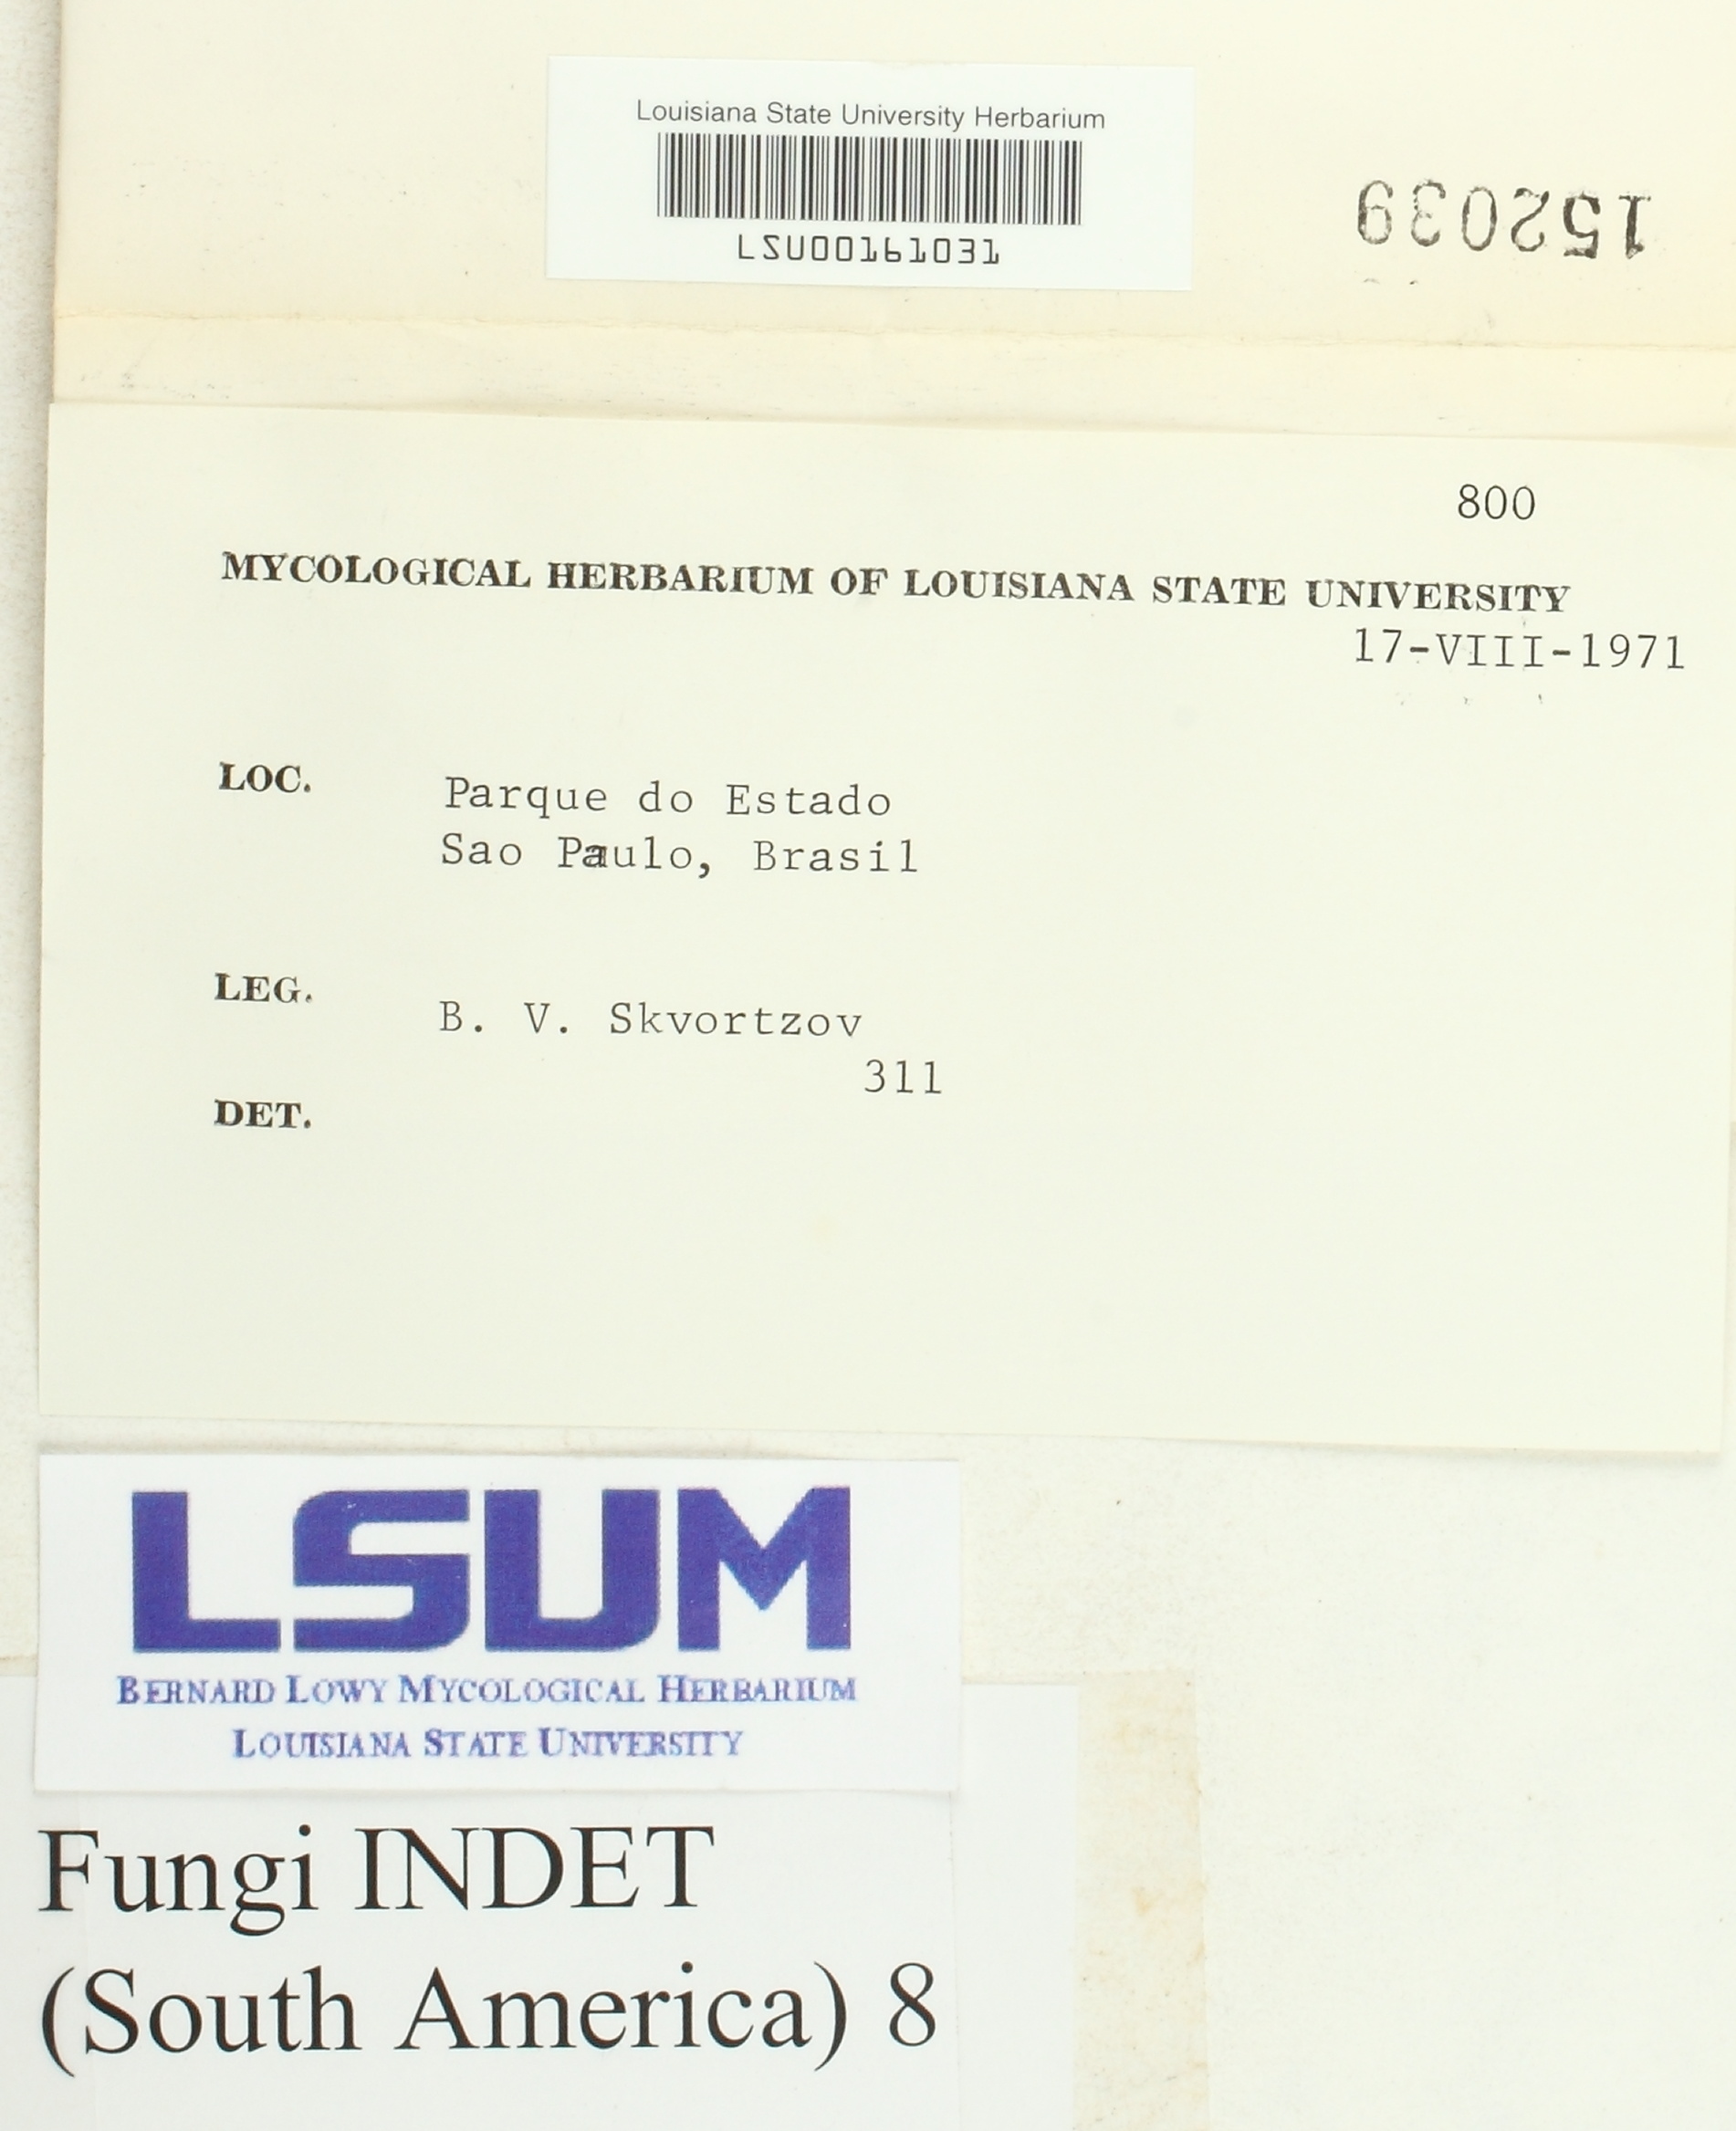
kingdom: Fungi
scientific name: Fungi
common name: Fungi
